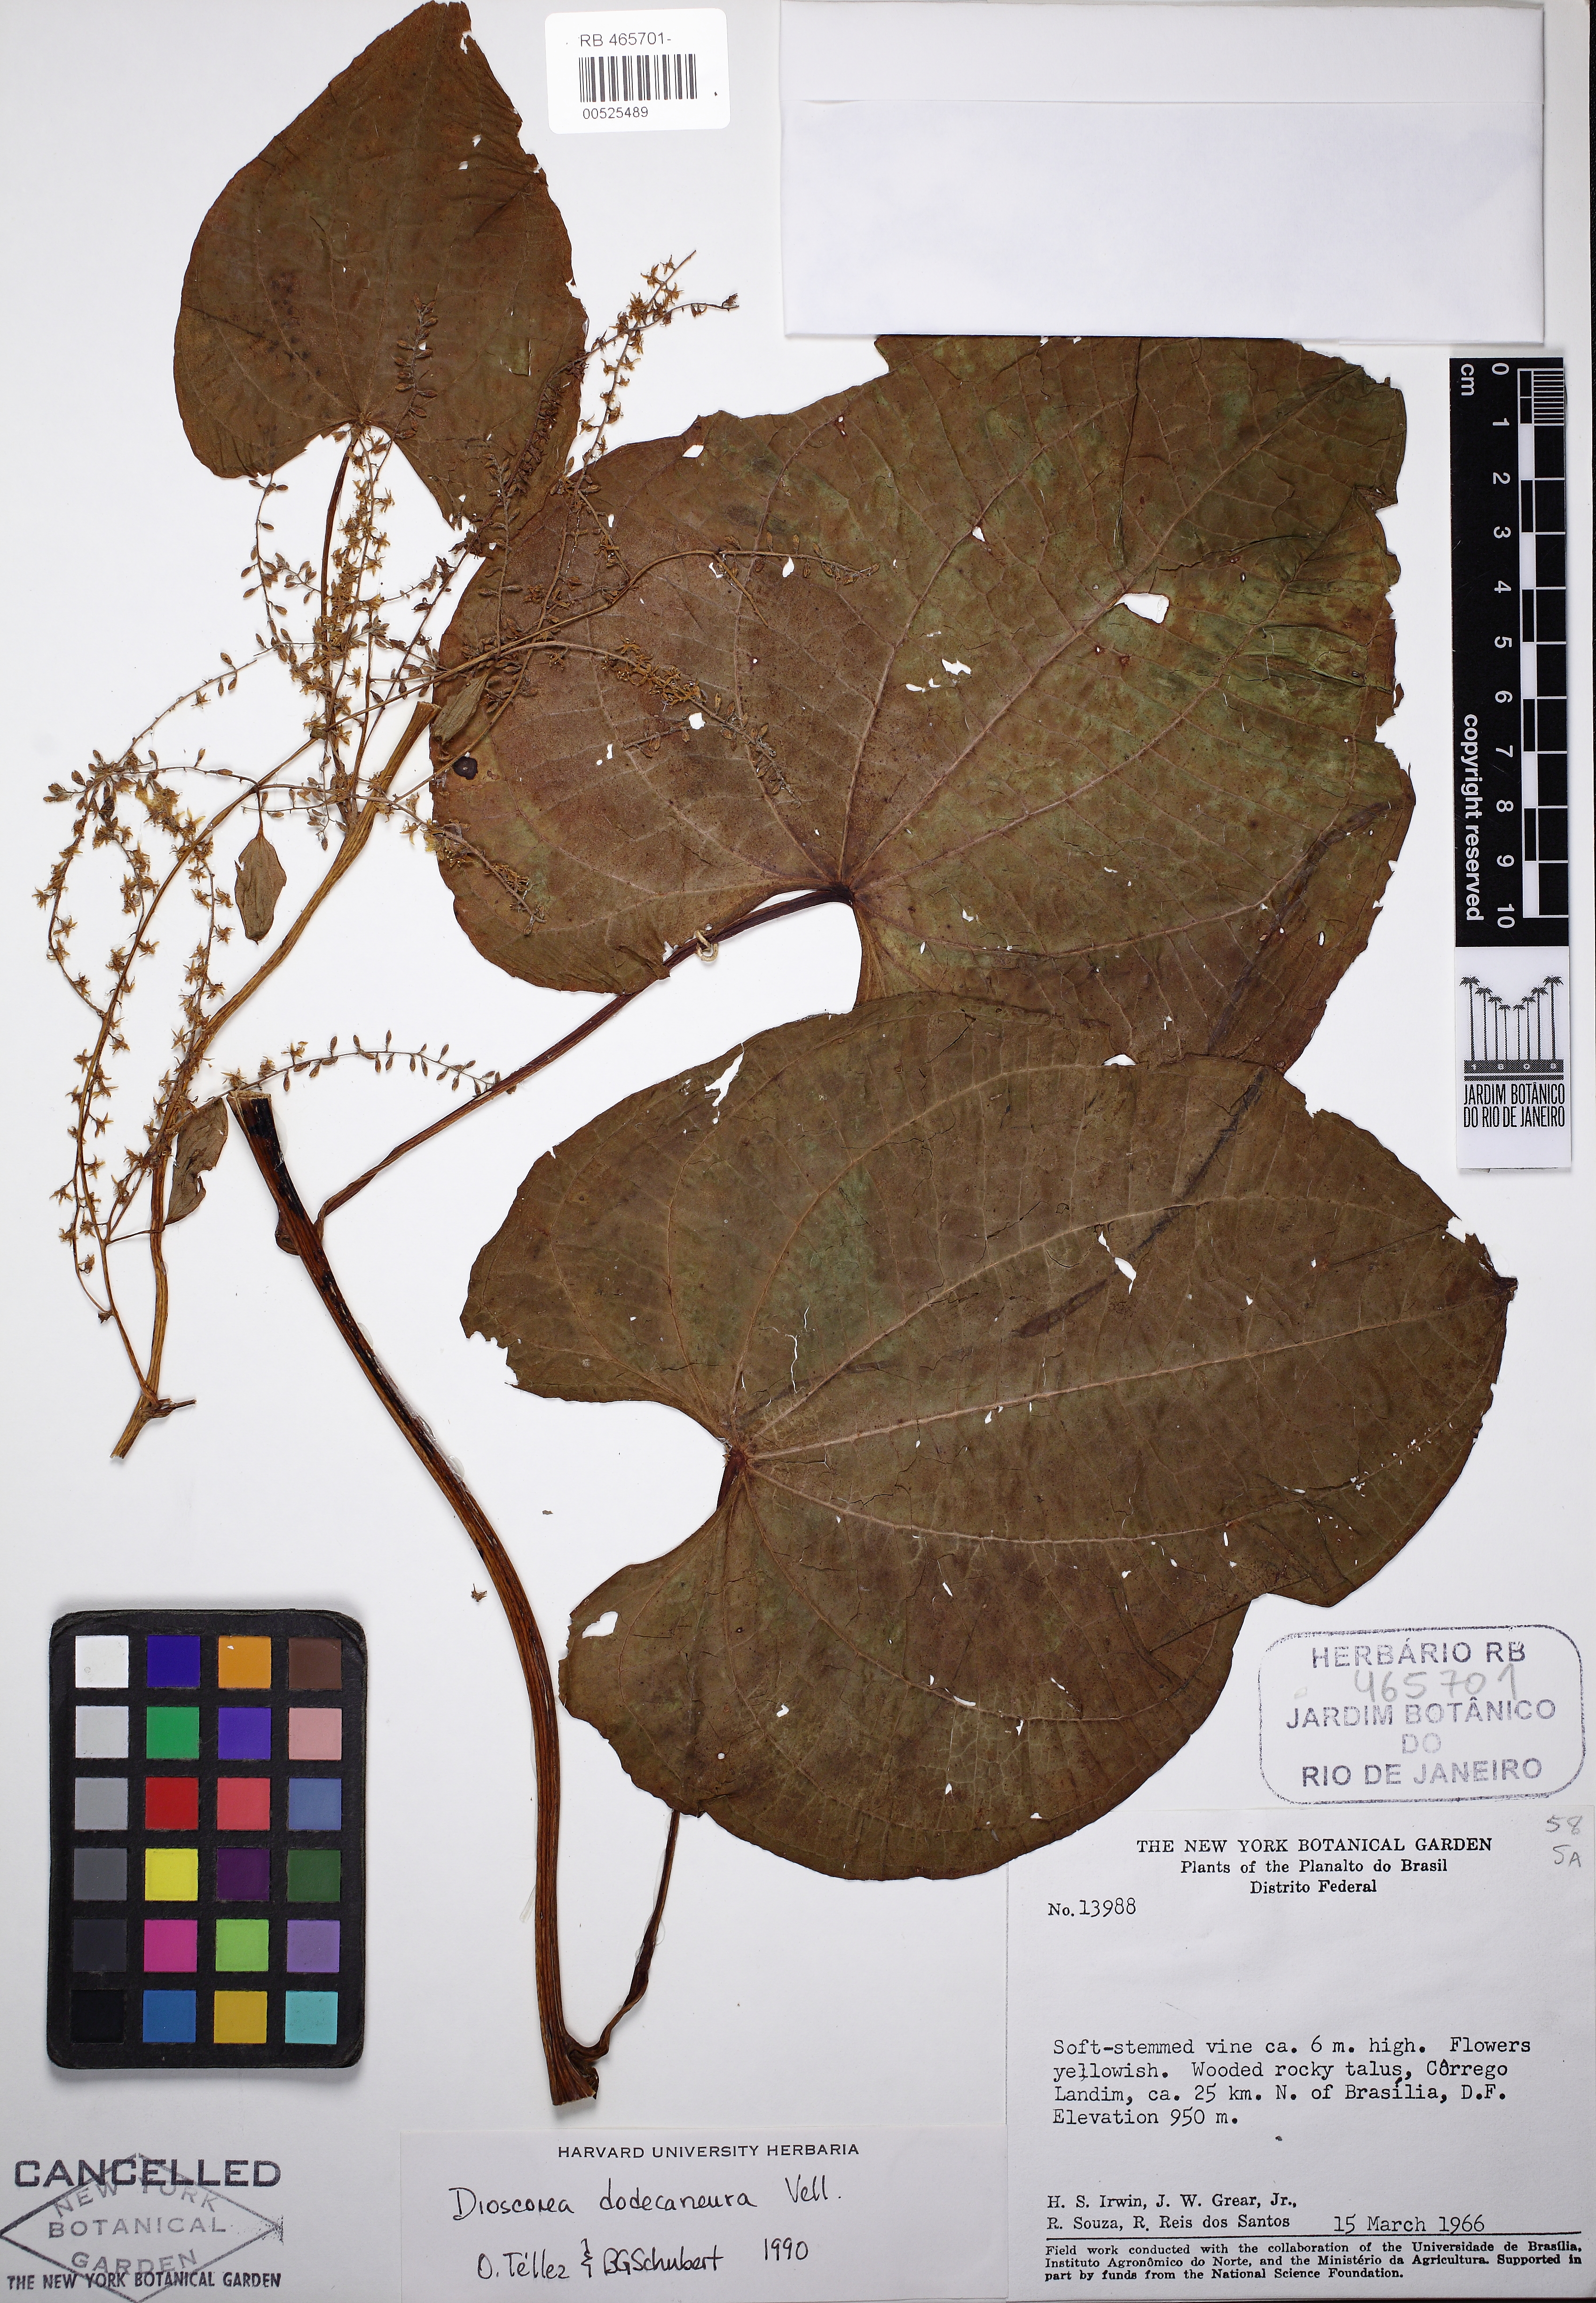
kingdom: Plantae
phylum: Tracheophyta
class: Liliopsida
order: Dioscoreales
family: Dioscoreaceae
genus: Dioscorea
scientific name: Dioscorea dodecaneura
